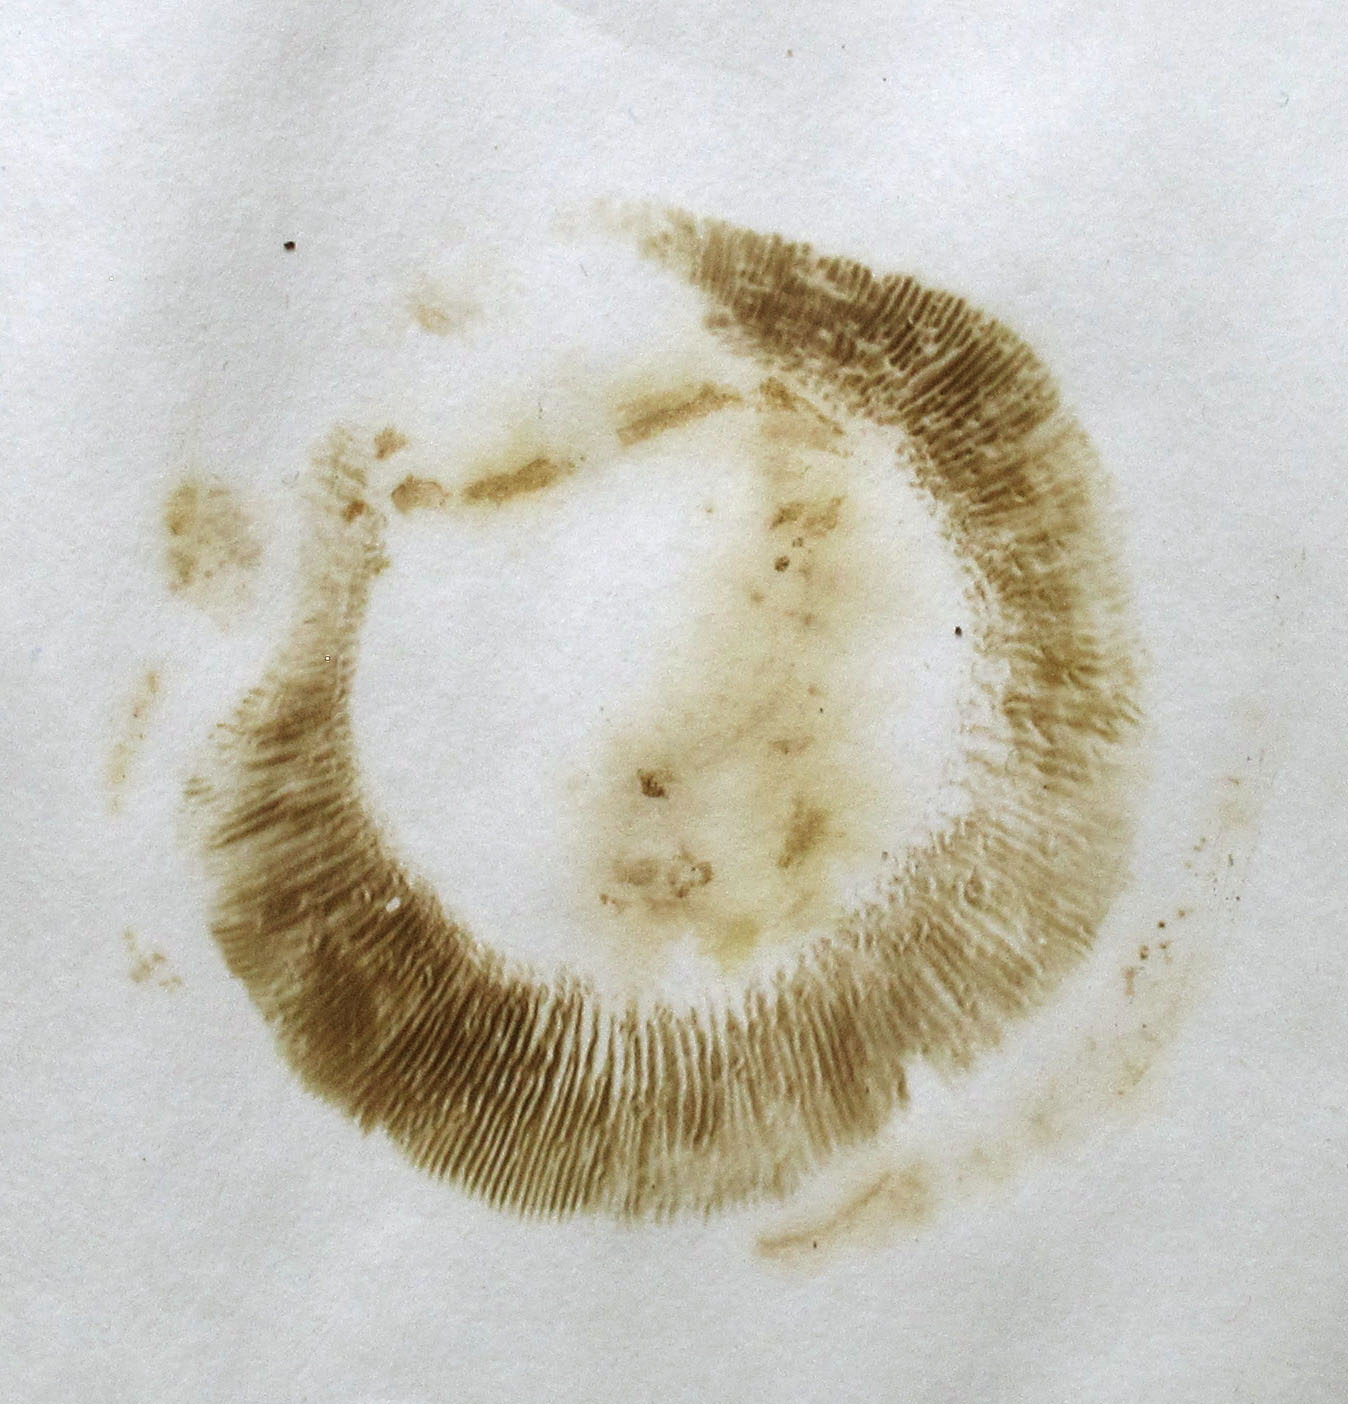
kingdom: Fungi
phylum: Basidiomycota
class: Agaricomycetes
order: Boletales
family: Paxillaceae
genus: Paxillus
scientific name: Paxillus ammoniavirescens
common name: olivensporet netbladhat
